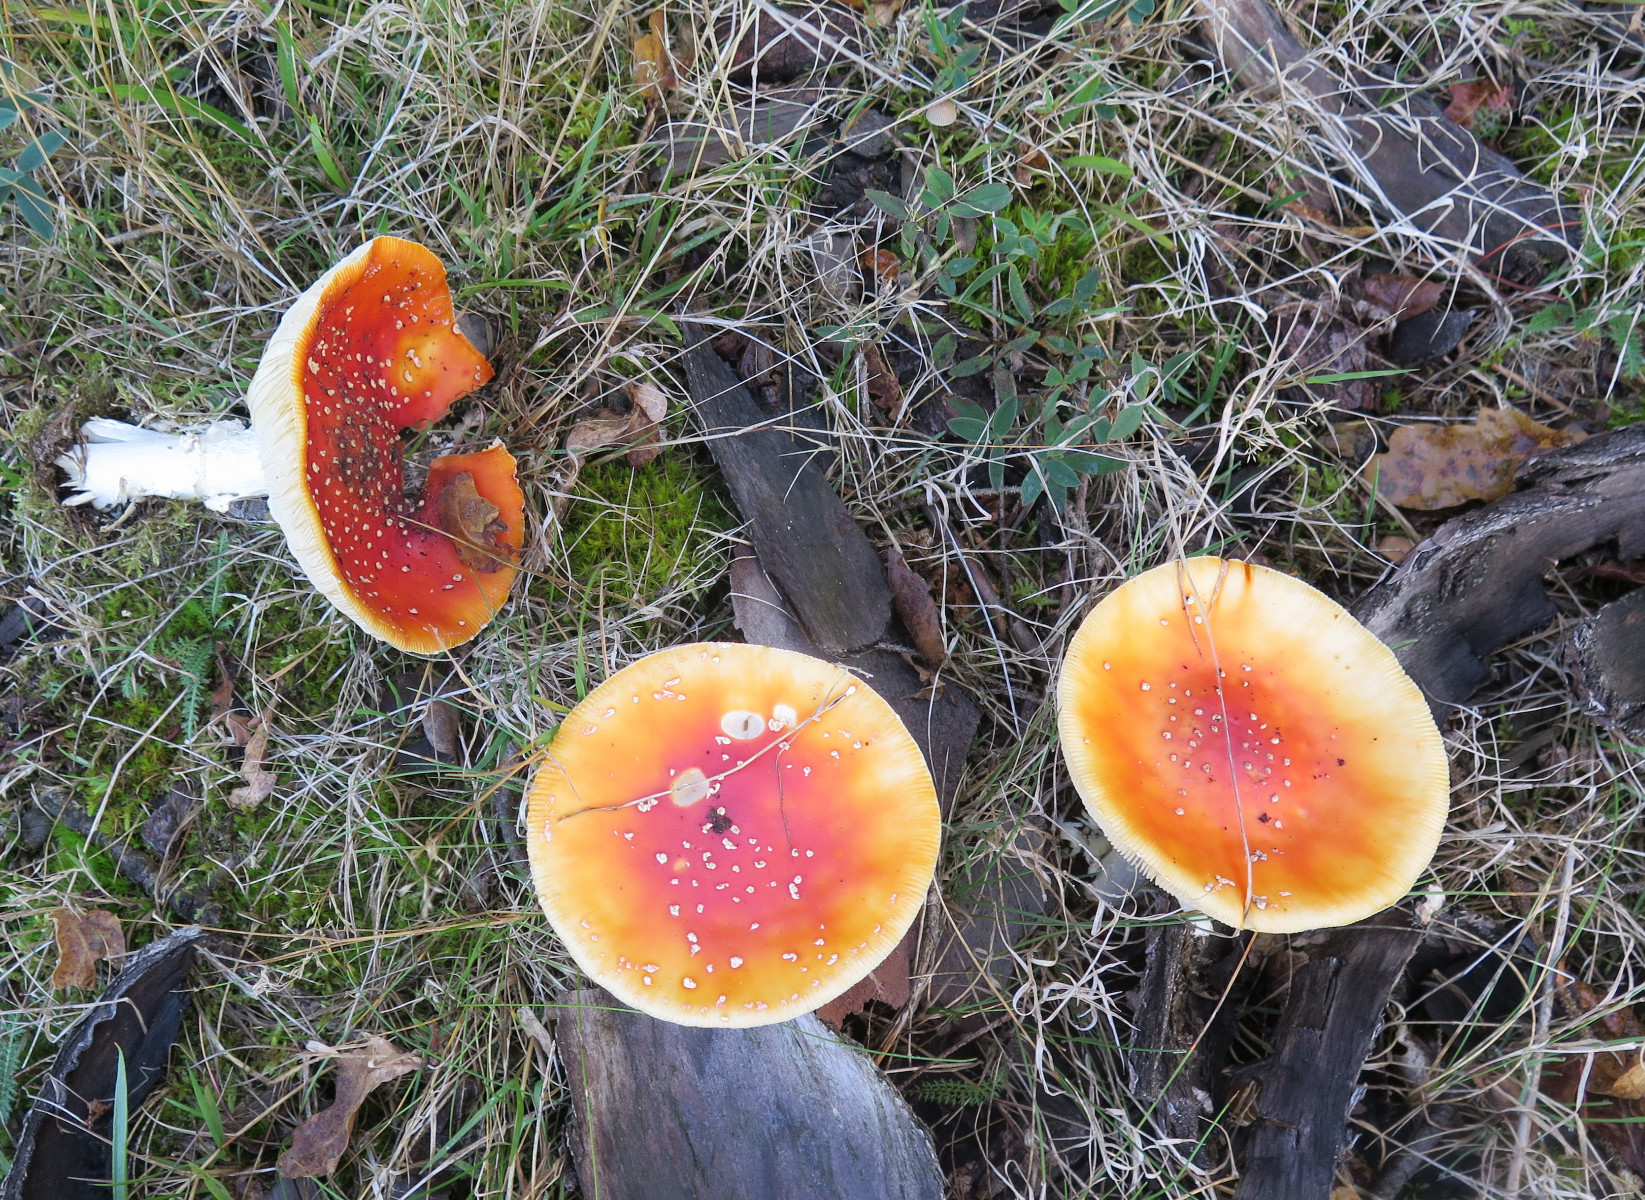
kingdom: Fungi
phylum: Basidiomycota
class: Agaricomycetes
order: Agaricales
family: Amanitaceae
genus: Amanita
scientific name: Amanita muscaria
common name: rød fluesvamp
